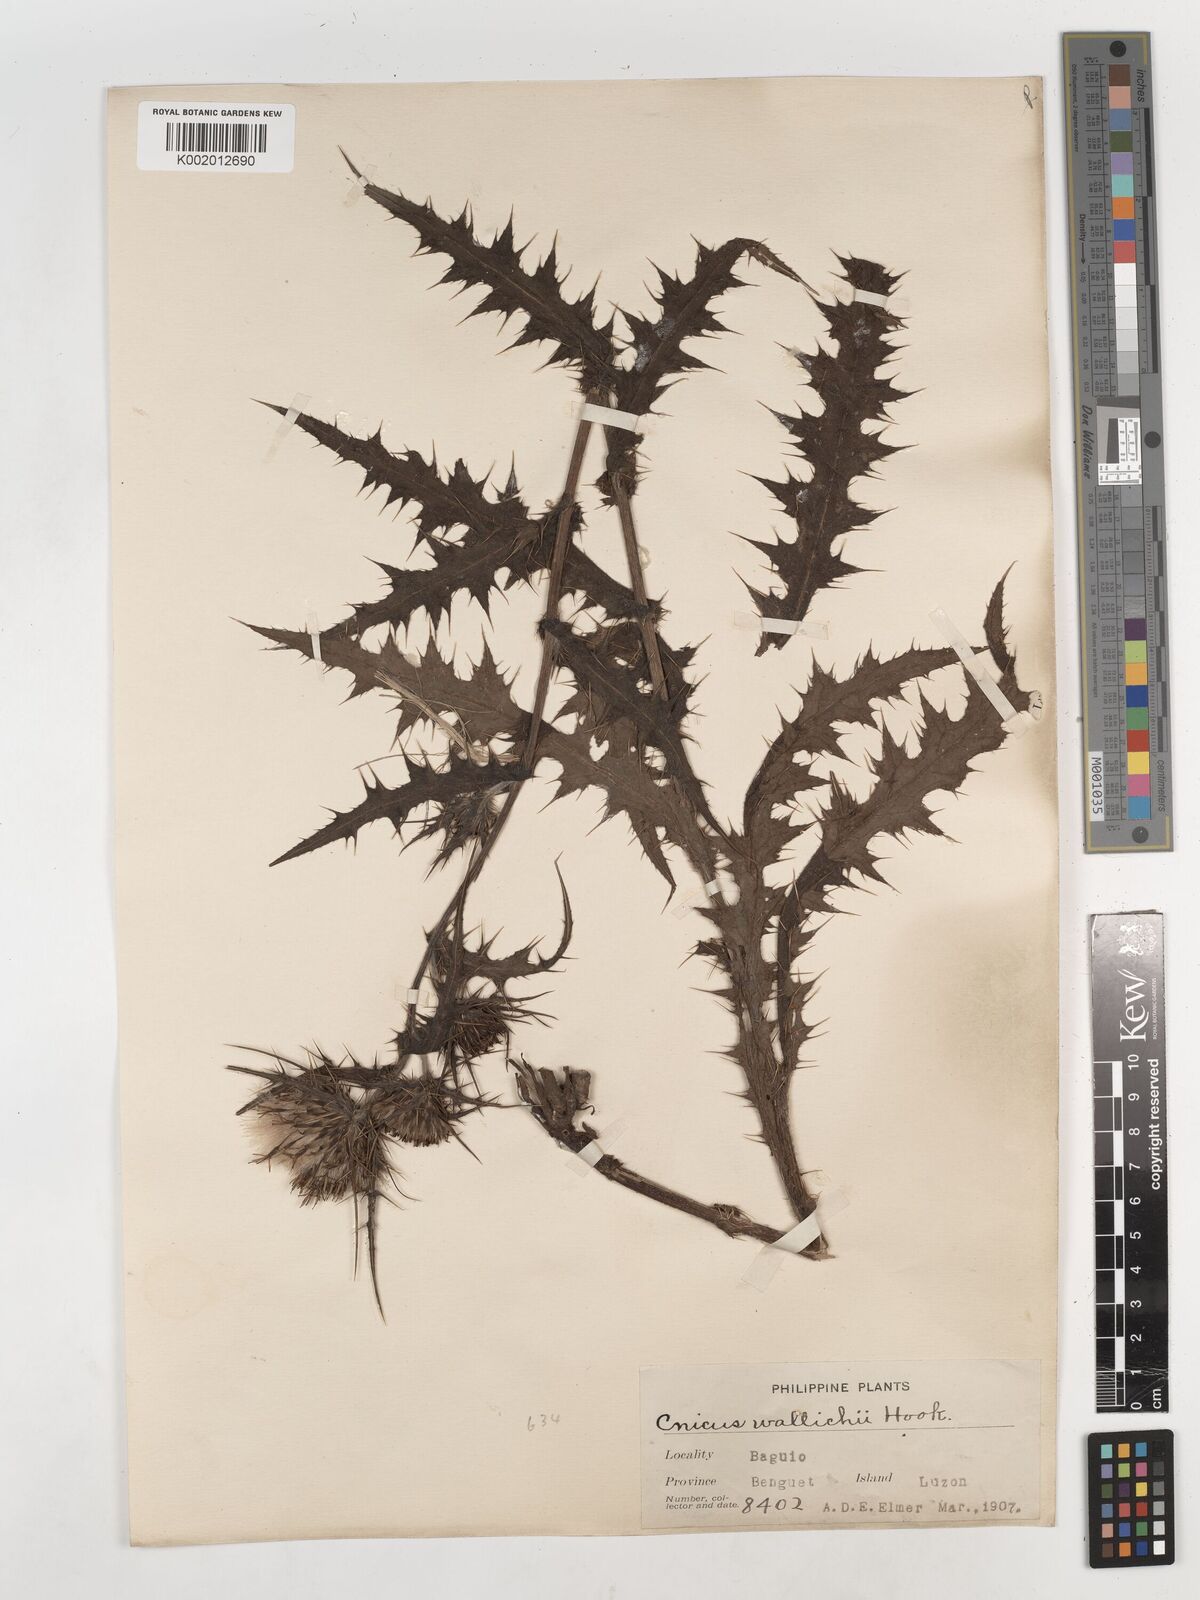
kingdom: Plantae
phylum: Tracheophyta
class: Magnoliopsida
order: Asterales
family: Asteraceae
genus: Cirsium
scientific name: Cirsium luzoniense
